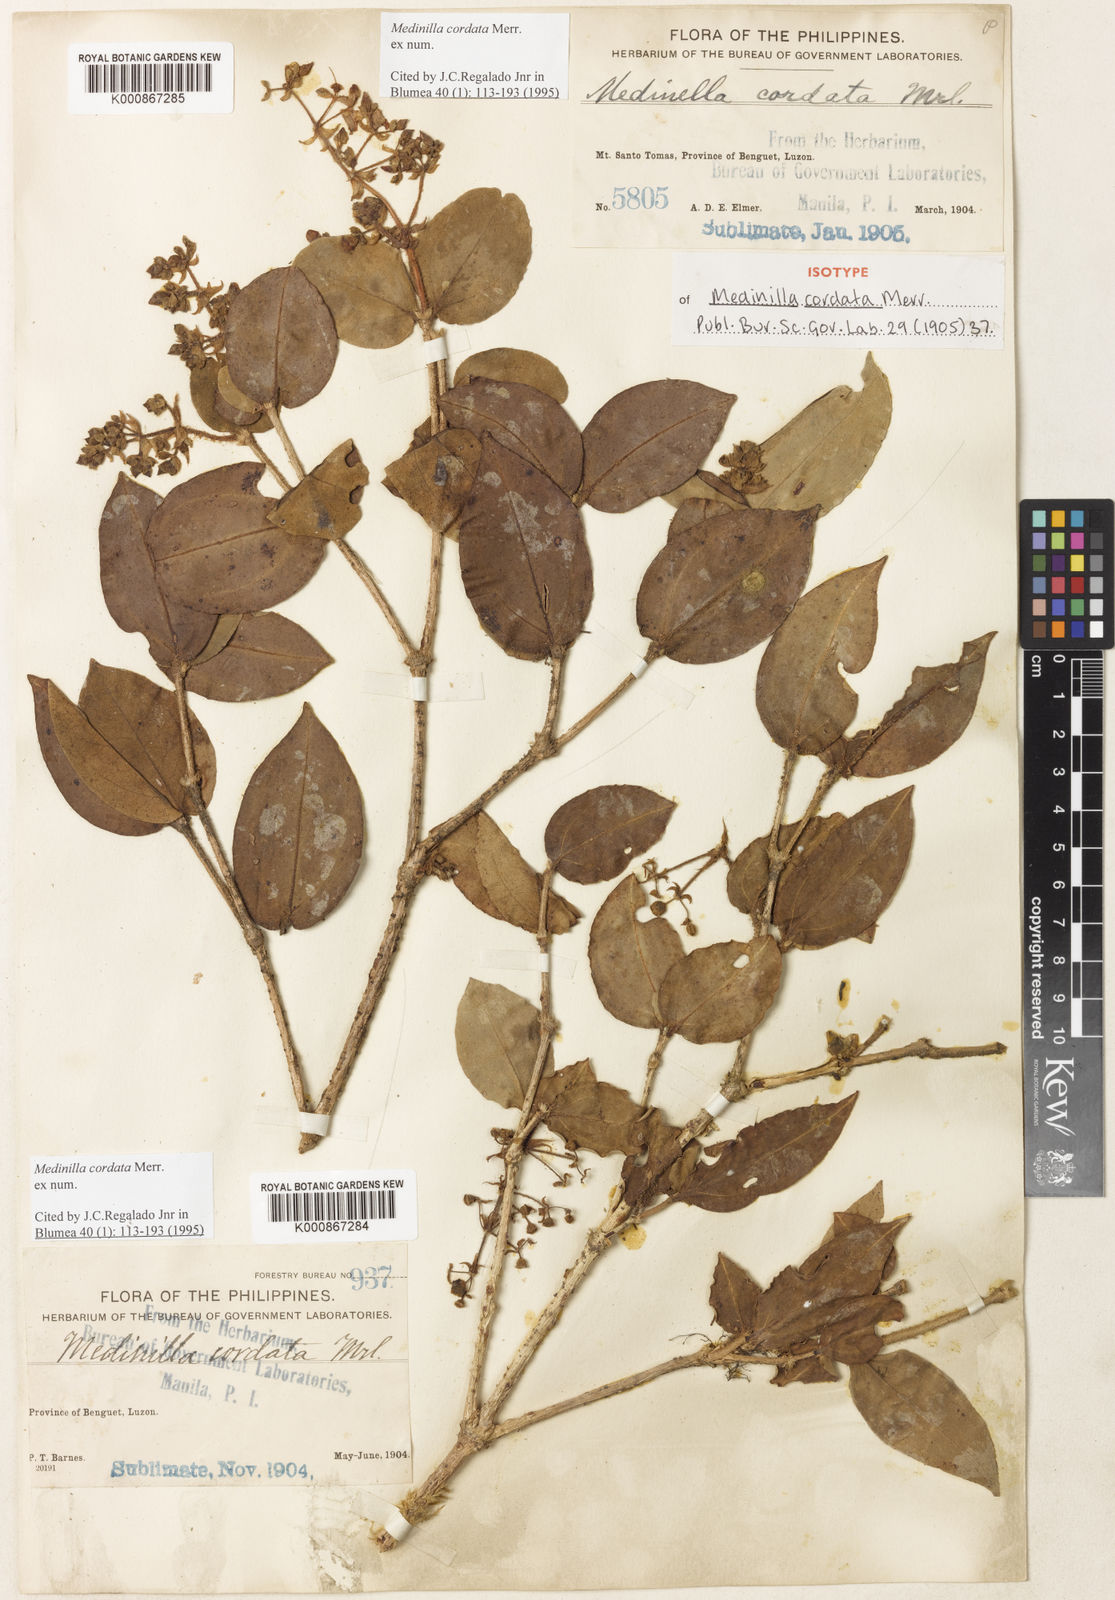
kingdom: Plantae
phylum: Tracheophyta
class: Magnoliopsida
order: Myrtales
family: Melastomataceae
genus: Medinilla
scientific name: Medinilla cordata
